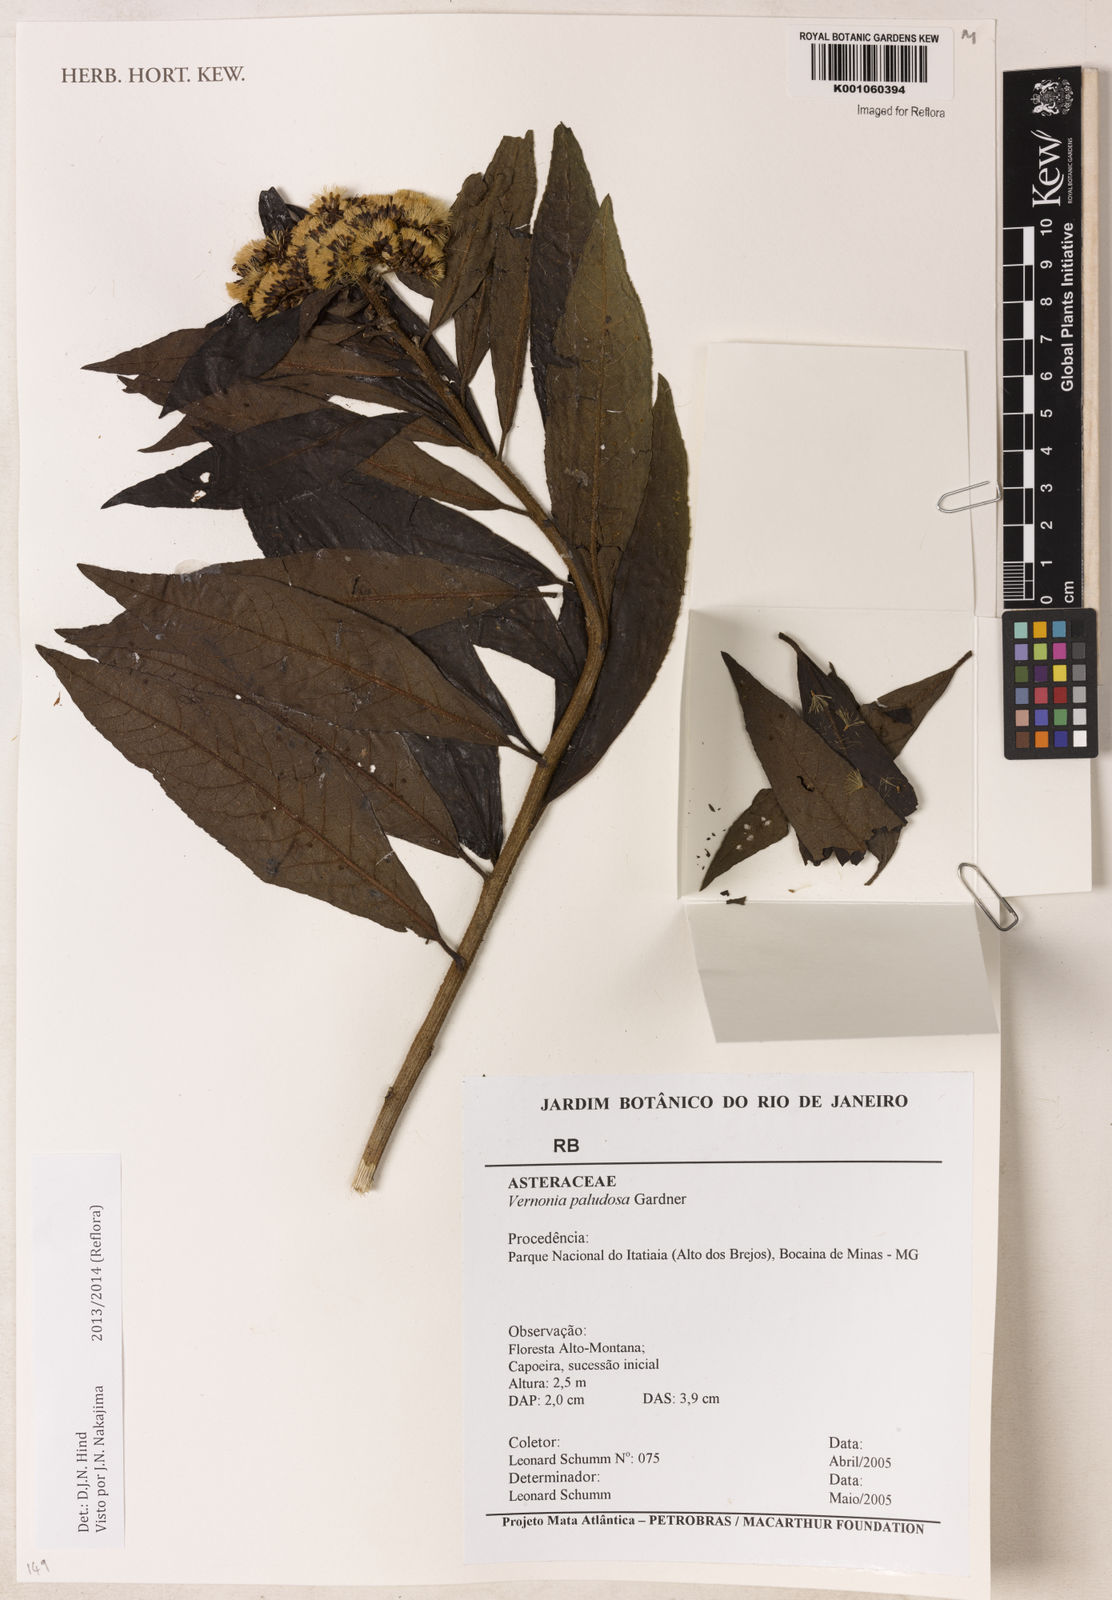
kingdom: Plantae
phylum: Tracheophyta
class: Magnoliopsida
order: Asterales
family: Asteraceae
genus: Vernonanthura
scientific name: Vernonanthura paludosa
